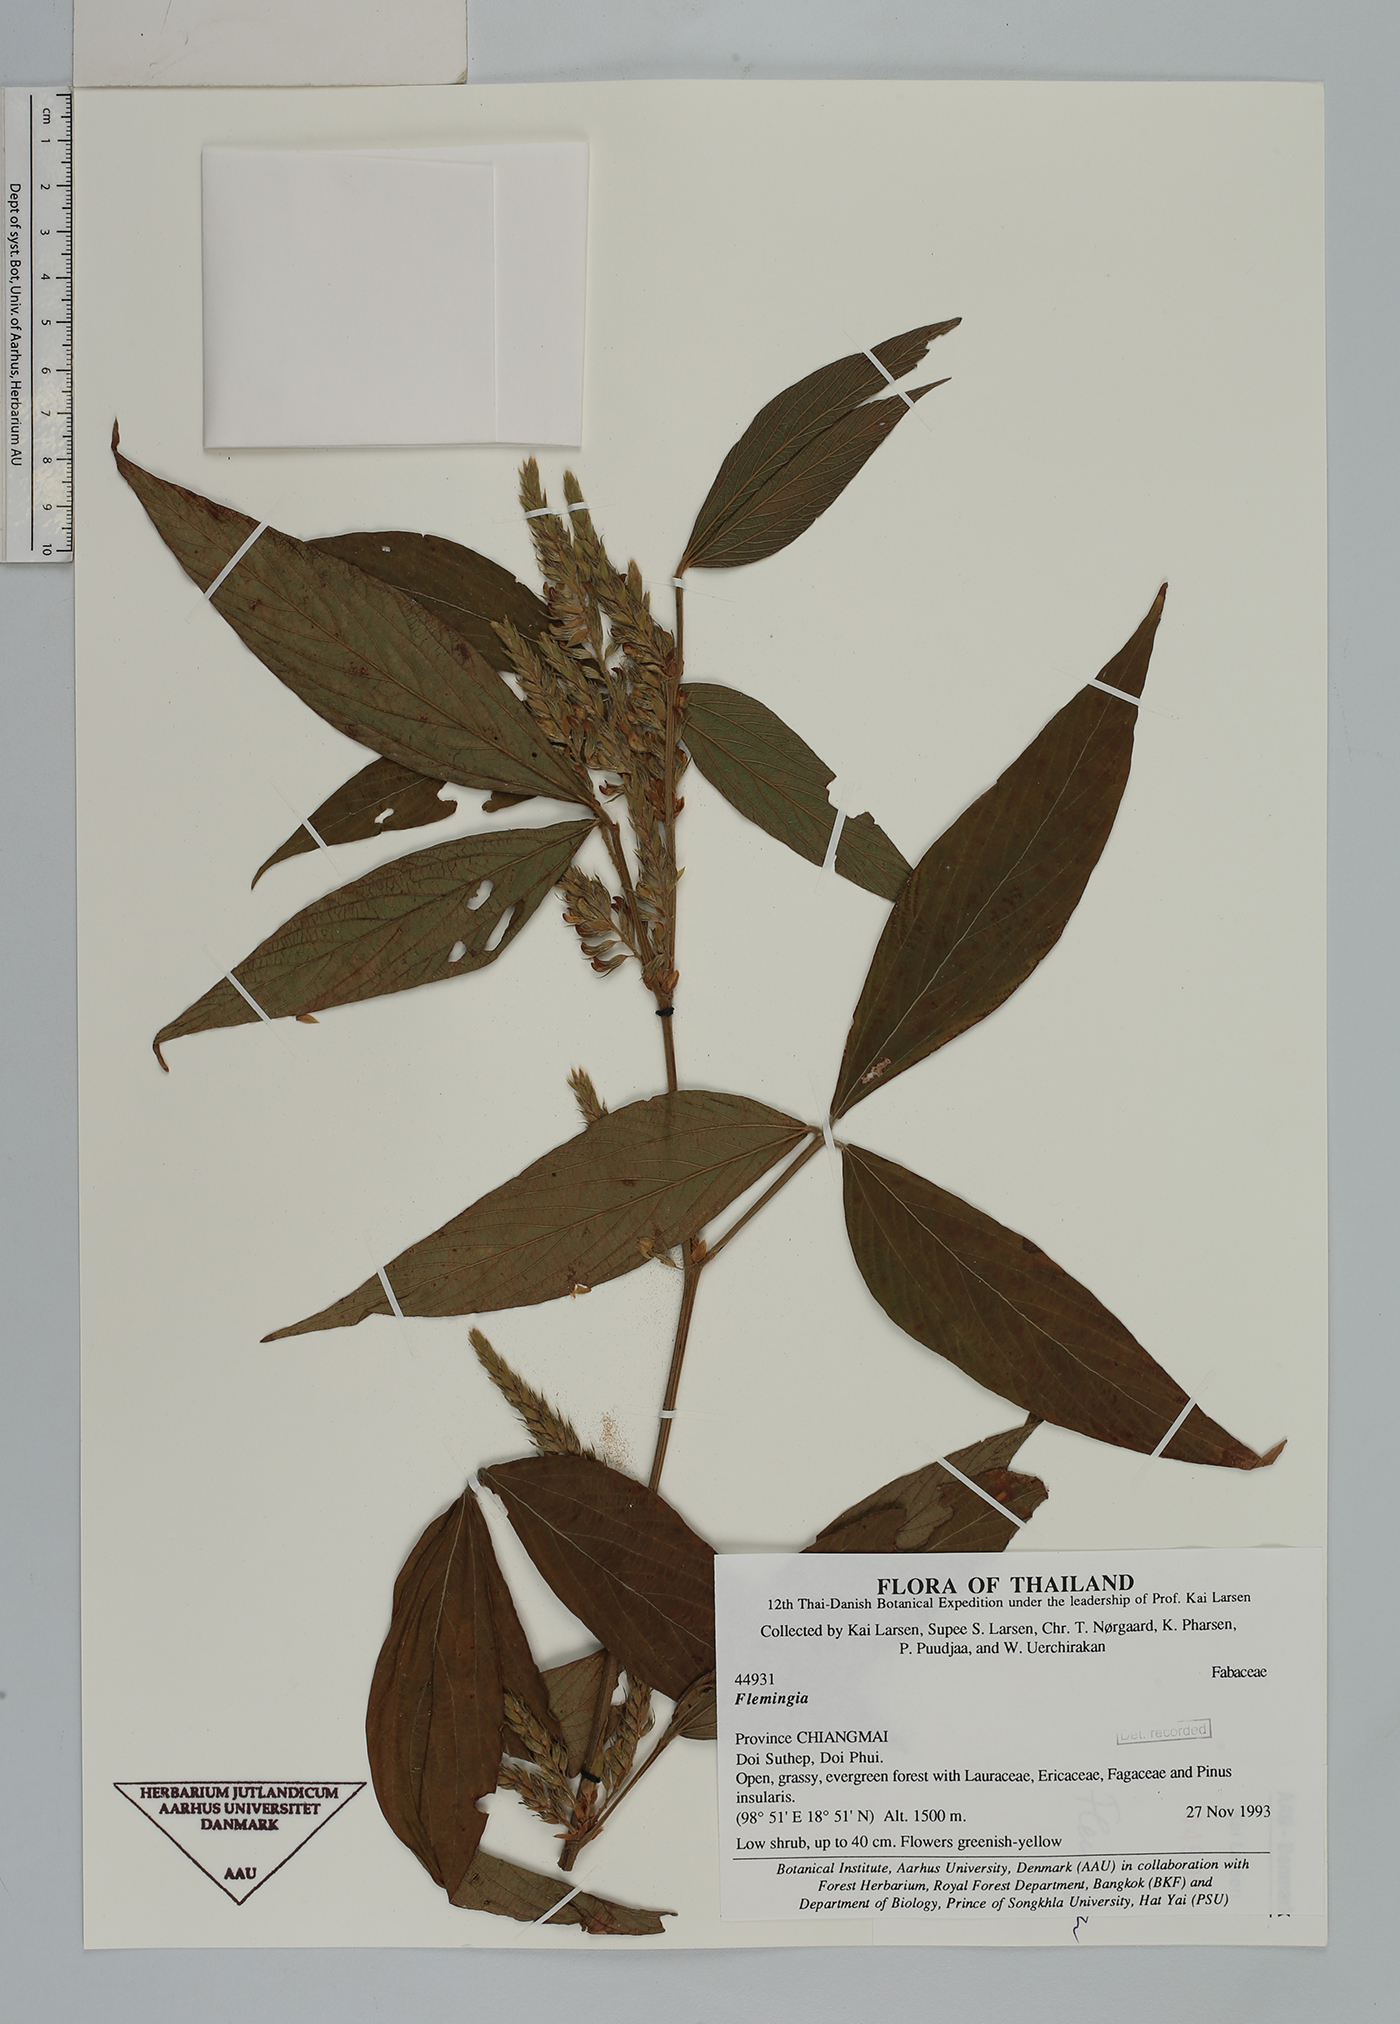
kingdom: Plantae
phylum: Tracheophyta
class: Magnoliopsida
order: Fabales
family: Fabaceae
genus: Flemingia
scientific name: Flemingia angusta
